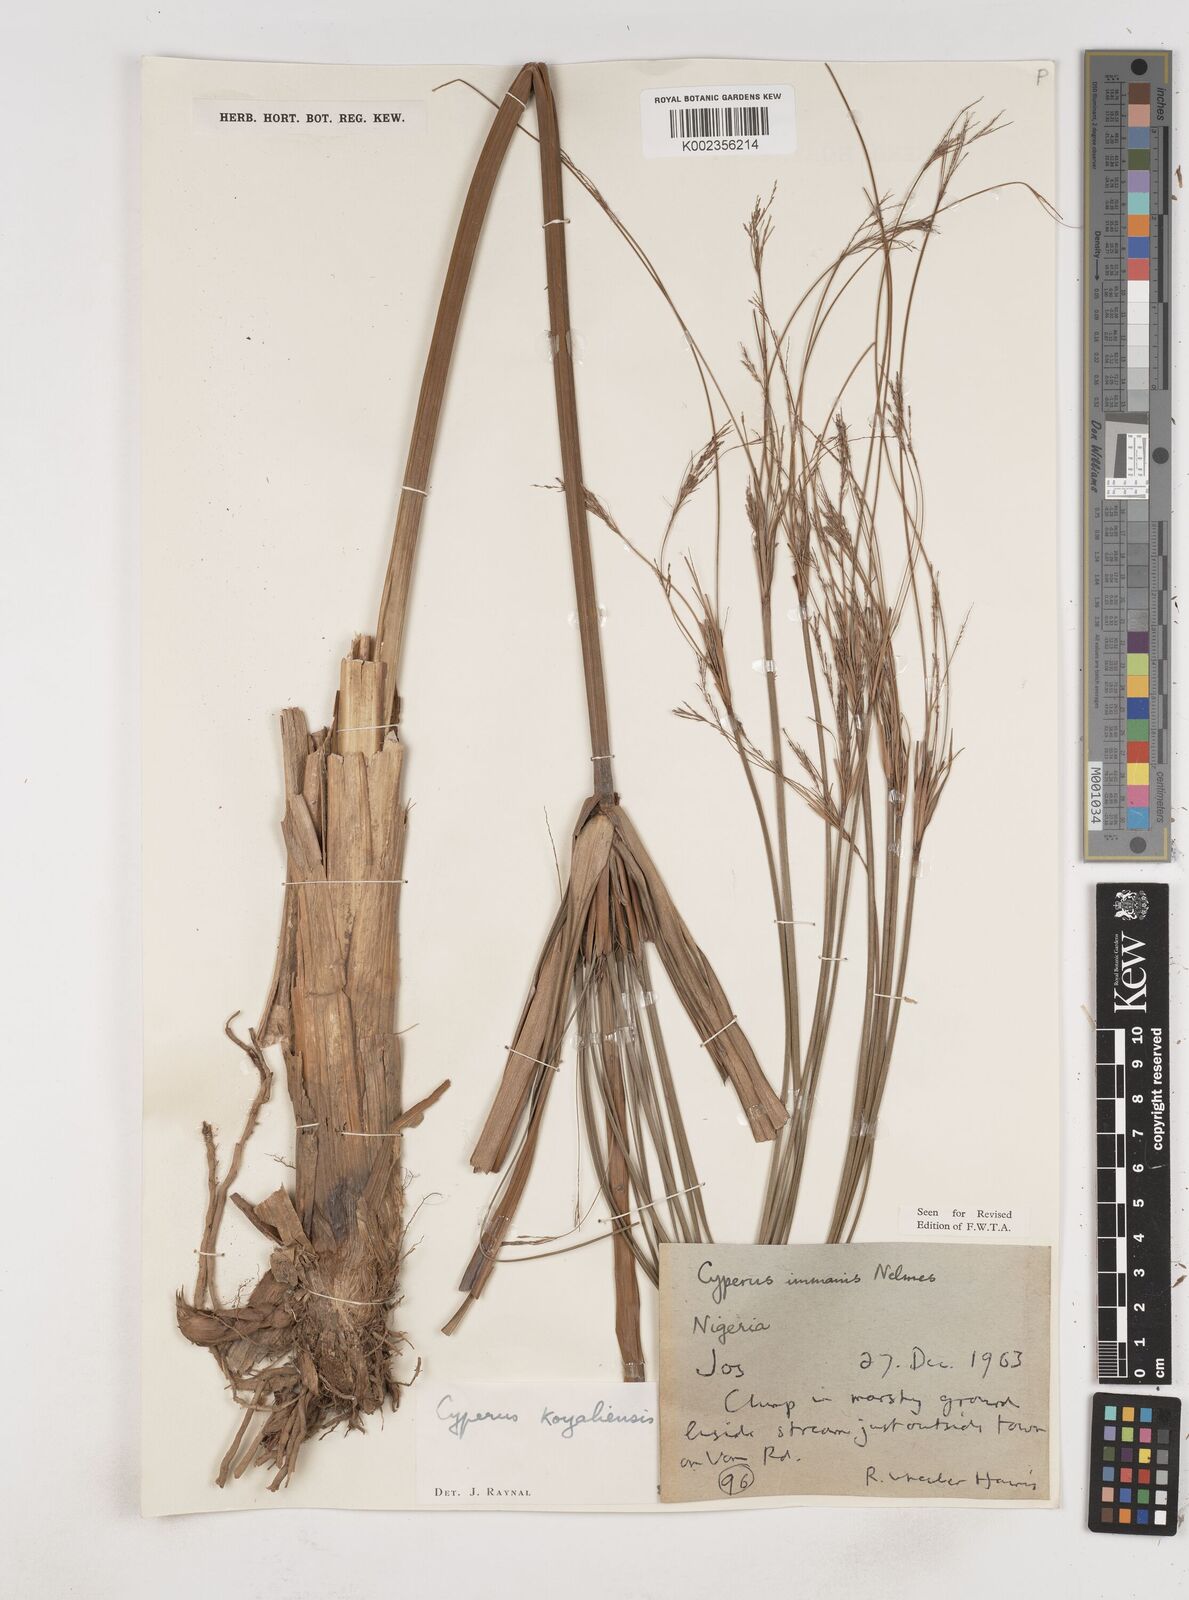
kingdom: Plantae
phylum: Tracheophyta
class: Liliopsida
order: Poales
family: Cyperaceae
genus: Cyperus
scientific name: Cyperus koyaliensis
